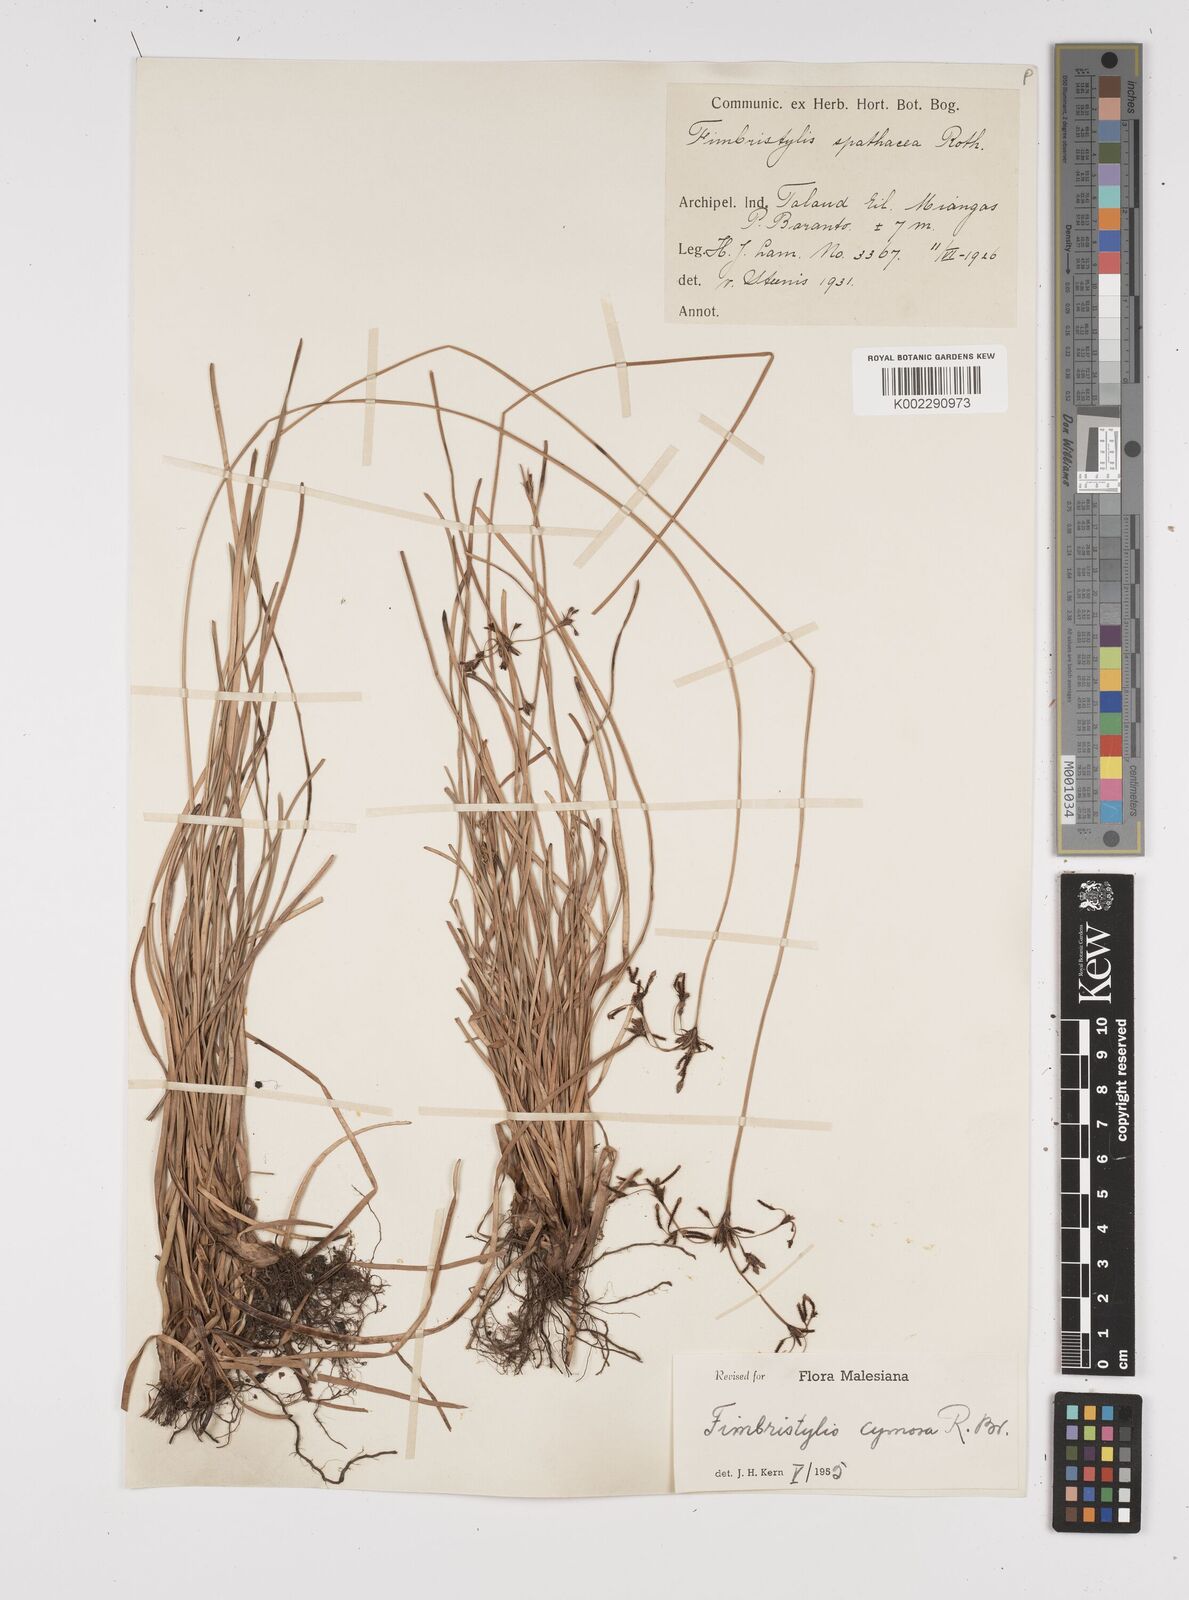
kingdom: Plantae
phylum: Tracheophyta
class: Liliopsida
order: Poales
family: Cyperaceae
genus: Fimbristylis
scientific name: Fimbristylis cymosa
